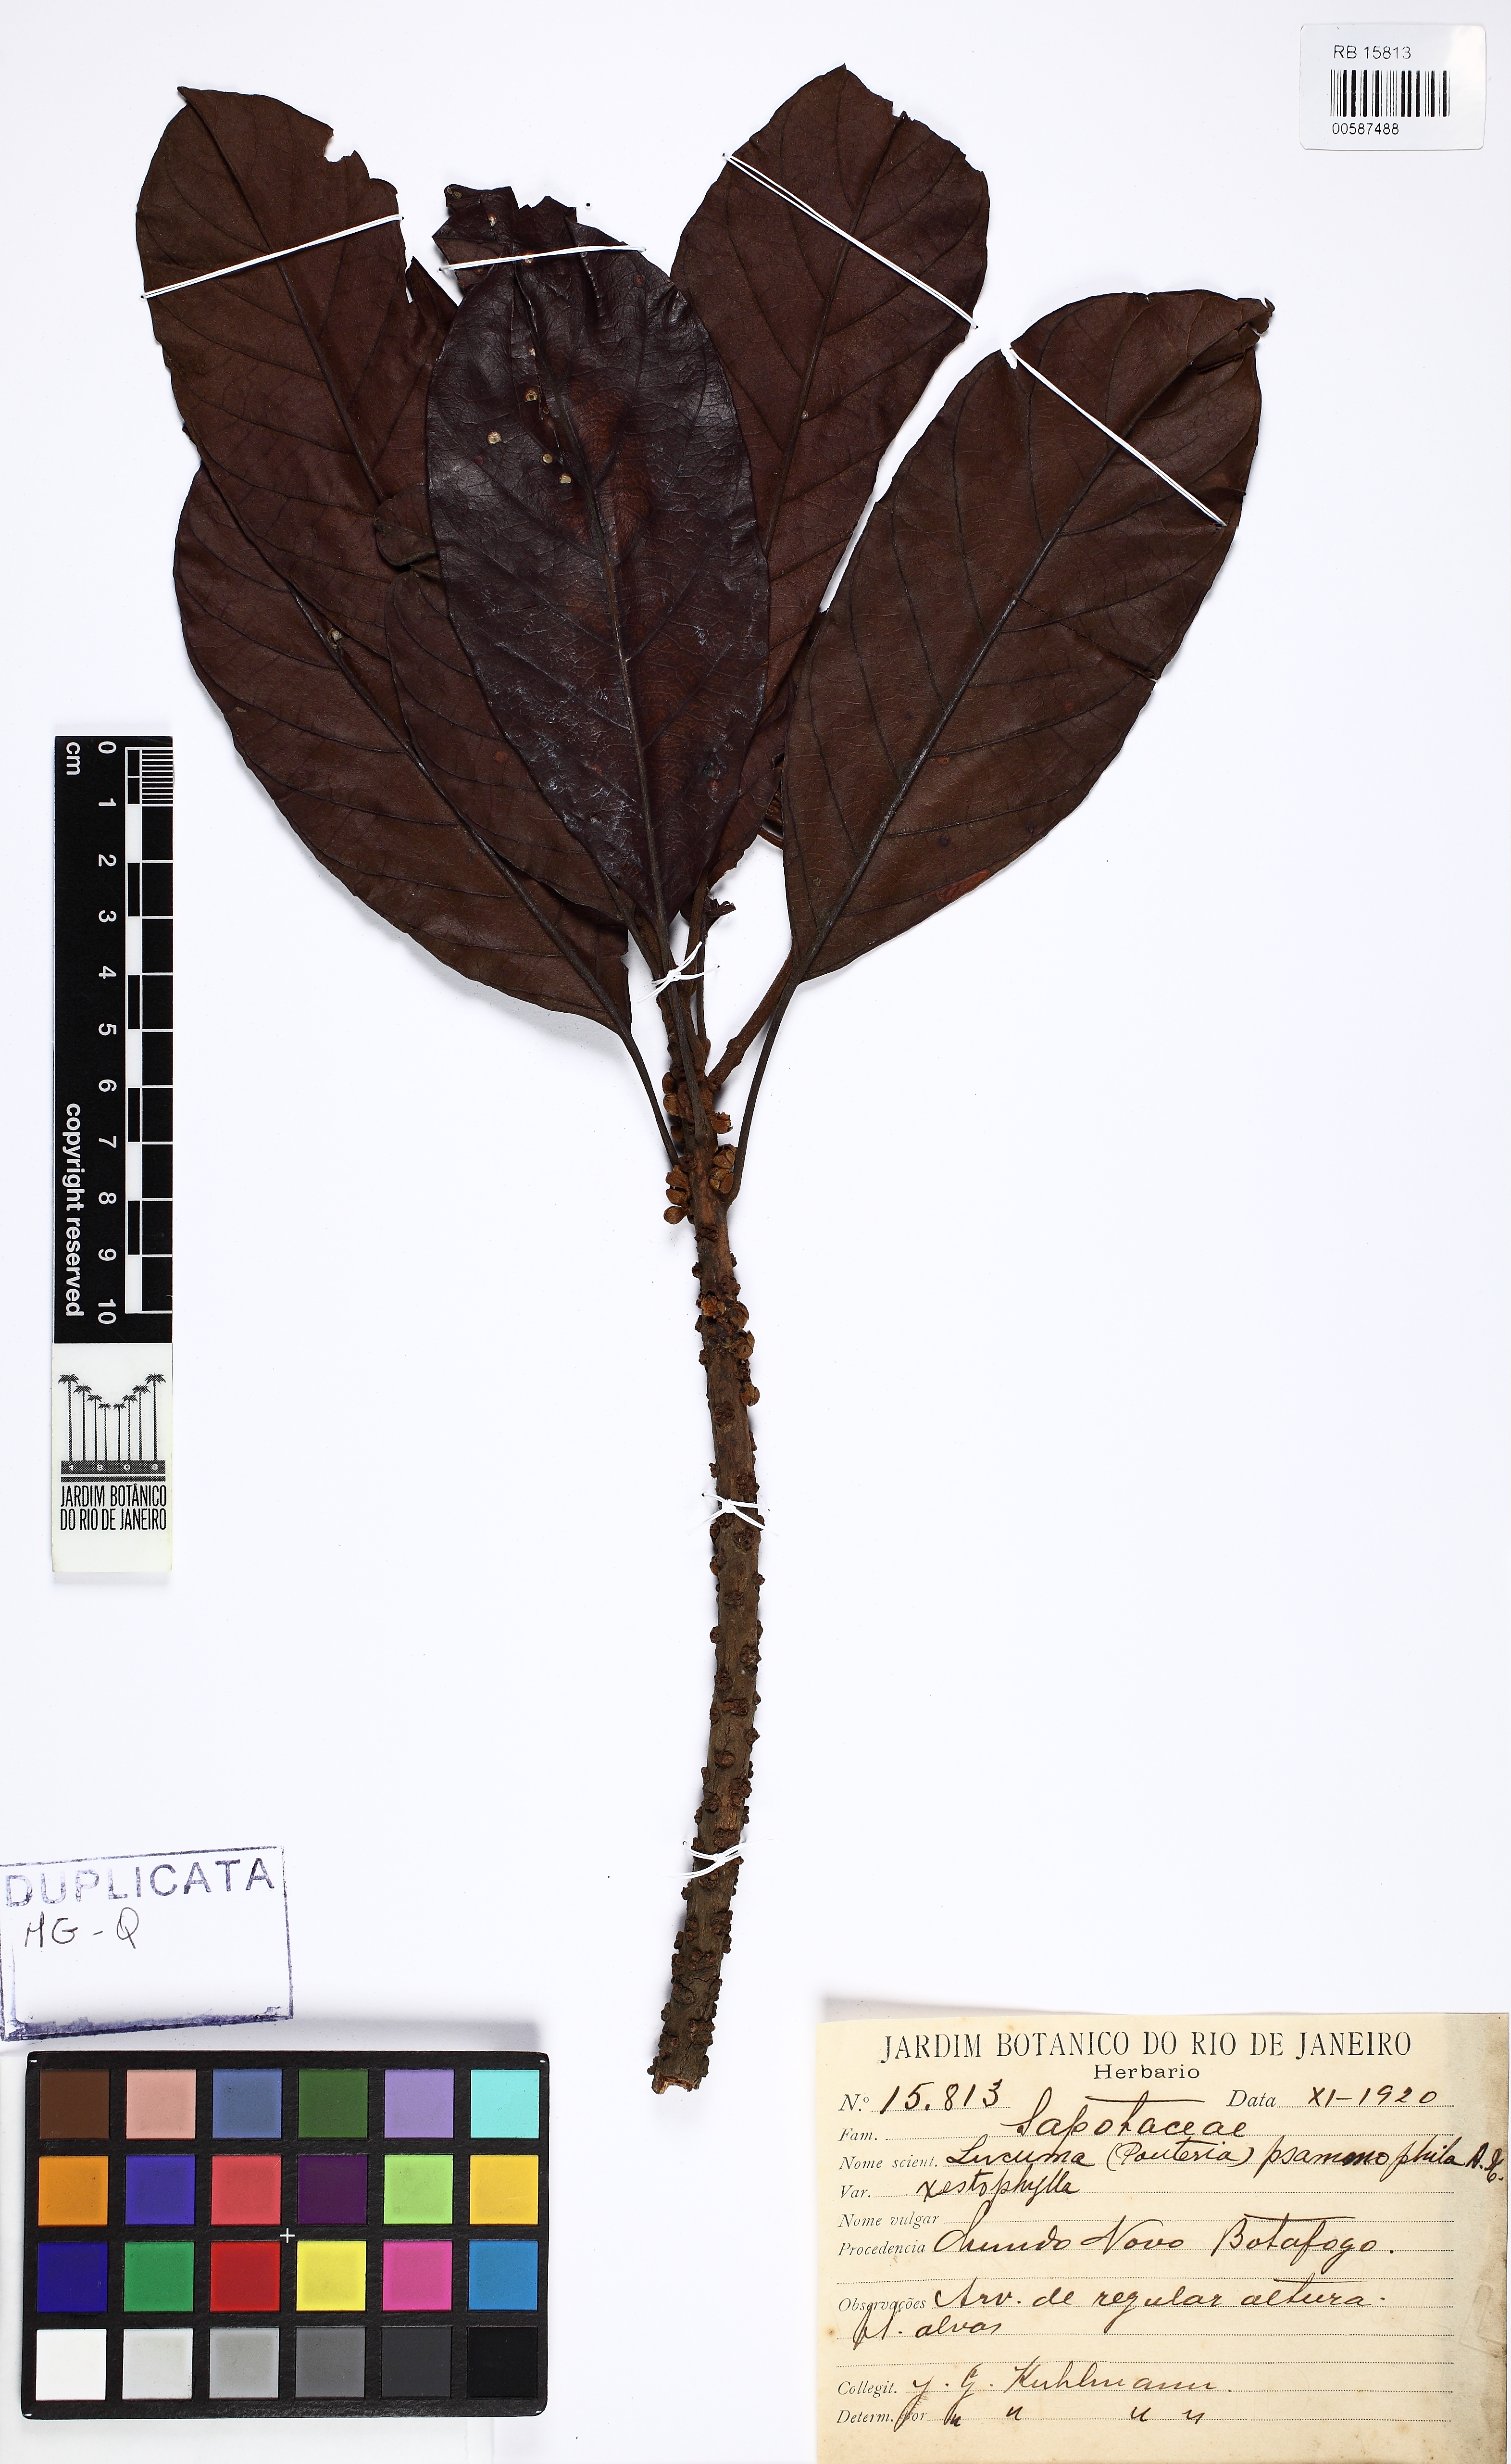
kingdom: Plantae
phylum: Tracheophyta
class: Magnoliopsida
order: Ericales
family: Sapotaceae
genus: Pouteria
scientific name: Pouteria psammophila
